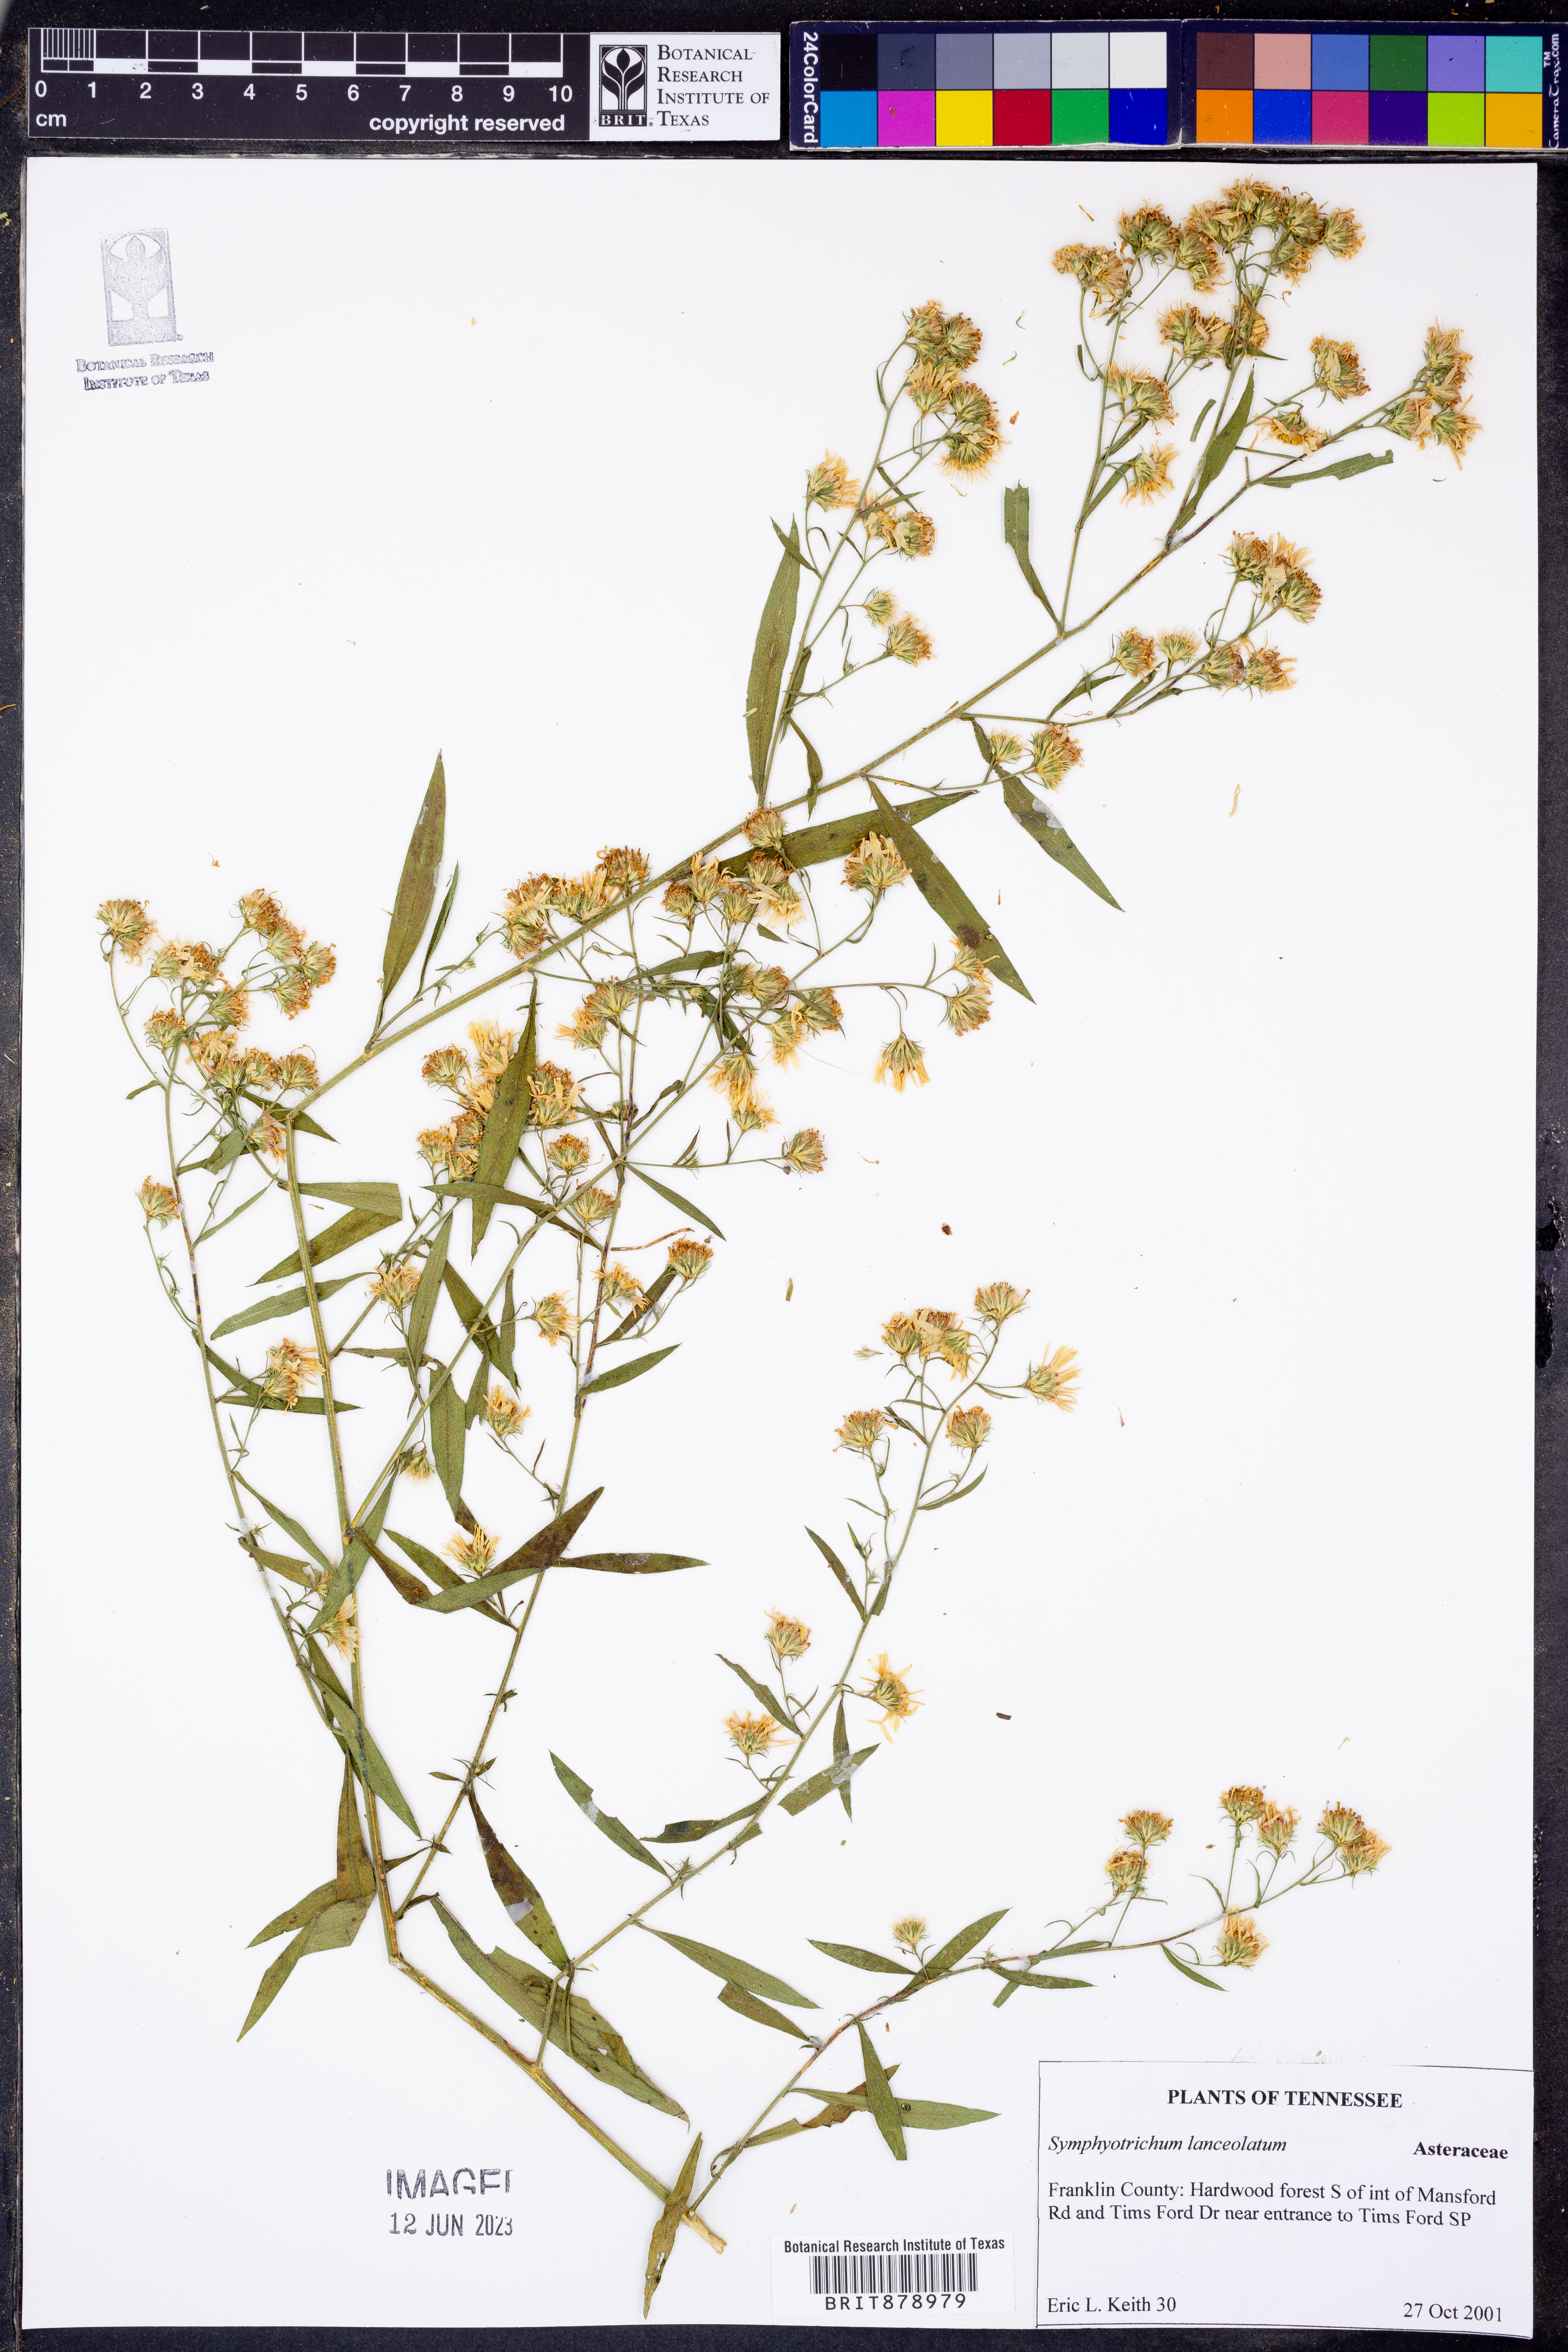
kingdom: Plantae
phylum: Tracheophyta
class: Magnoliopsida
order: Asterales
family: Asteraceae
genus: Symphyotrichum
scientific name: Symphyotrichum lanceolatum
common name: Panicled aster
